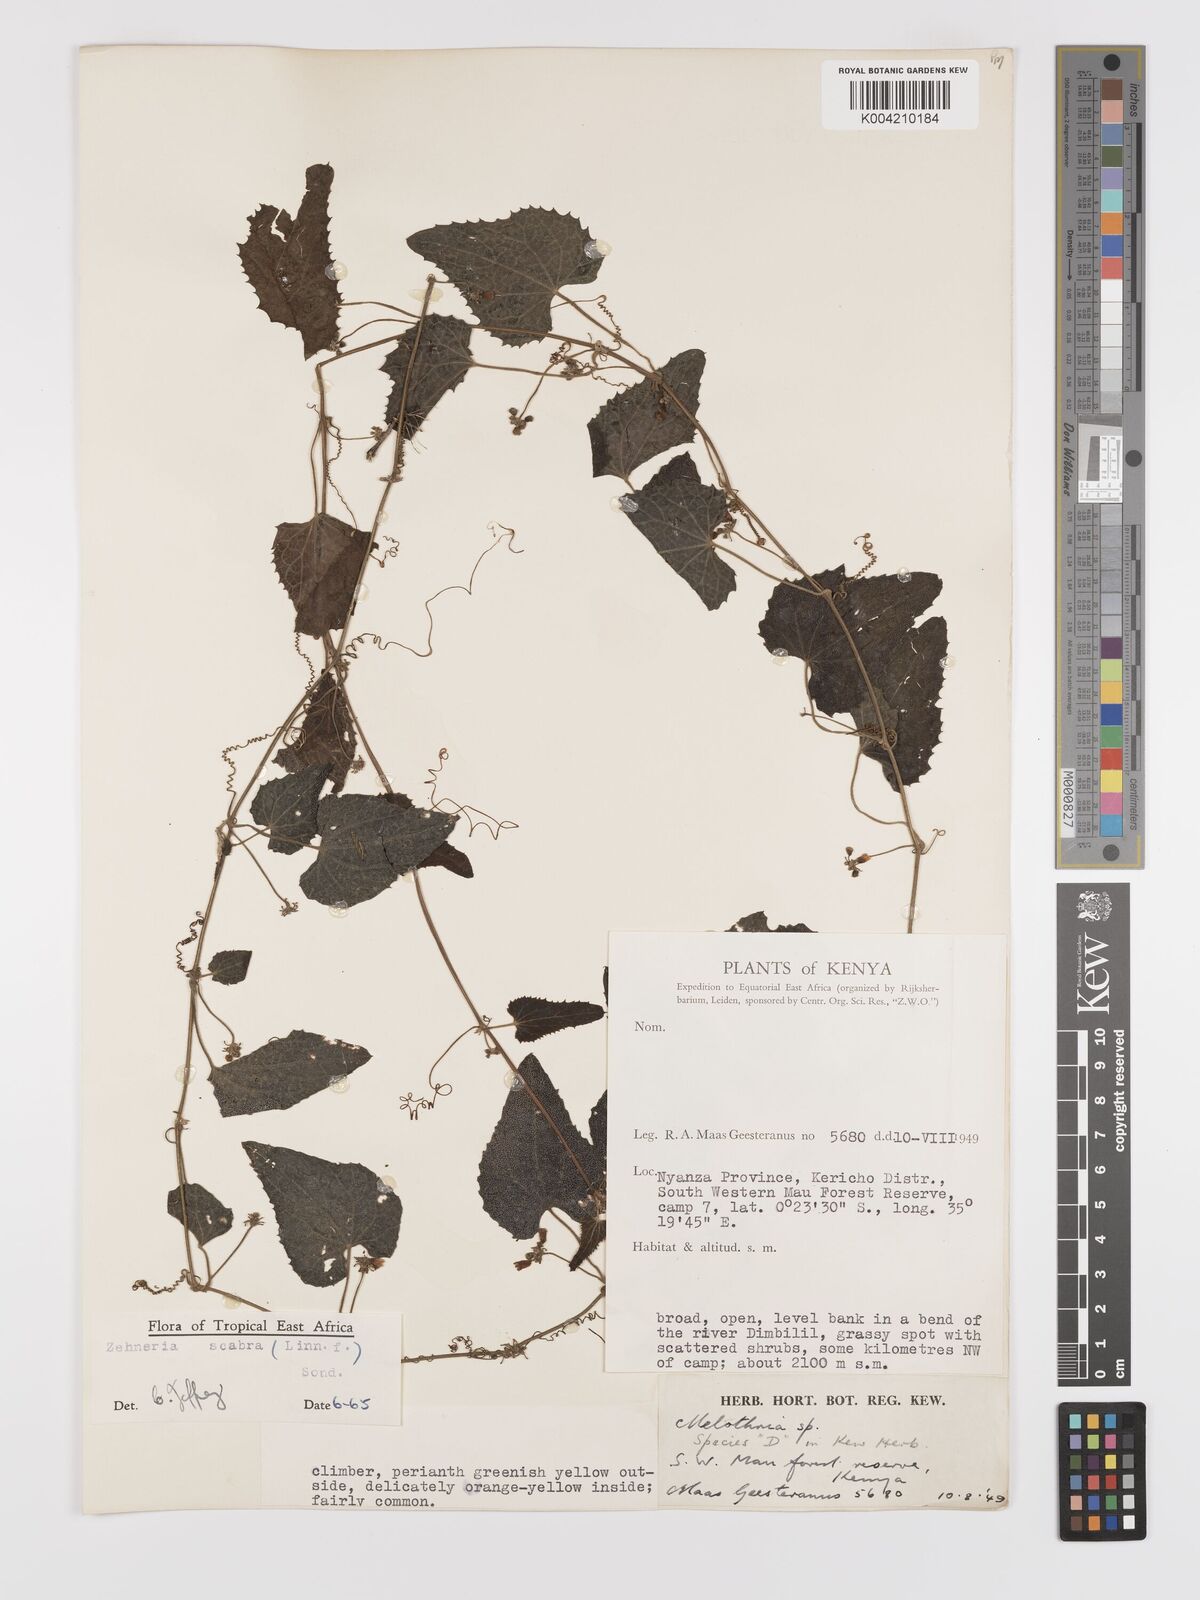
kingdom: Plantae
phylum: Tracheophyta
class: Magnoliopsida
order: Cucurbitales
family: Cucurbitaceae
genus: Zehneria
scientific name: Zehneria scabra
